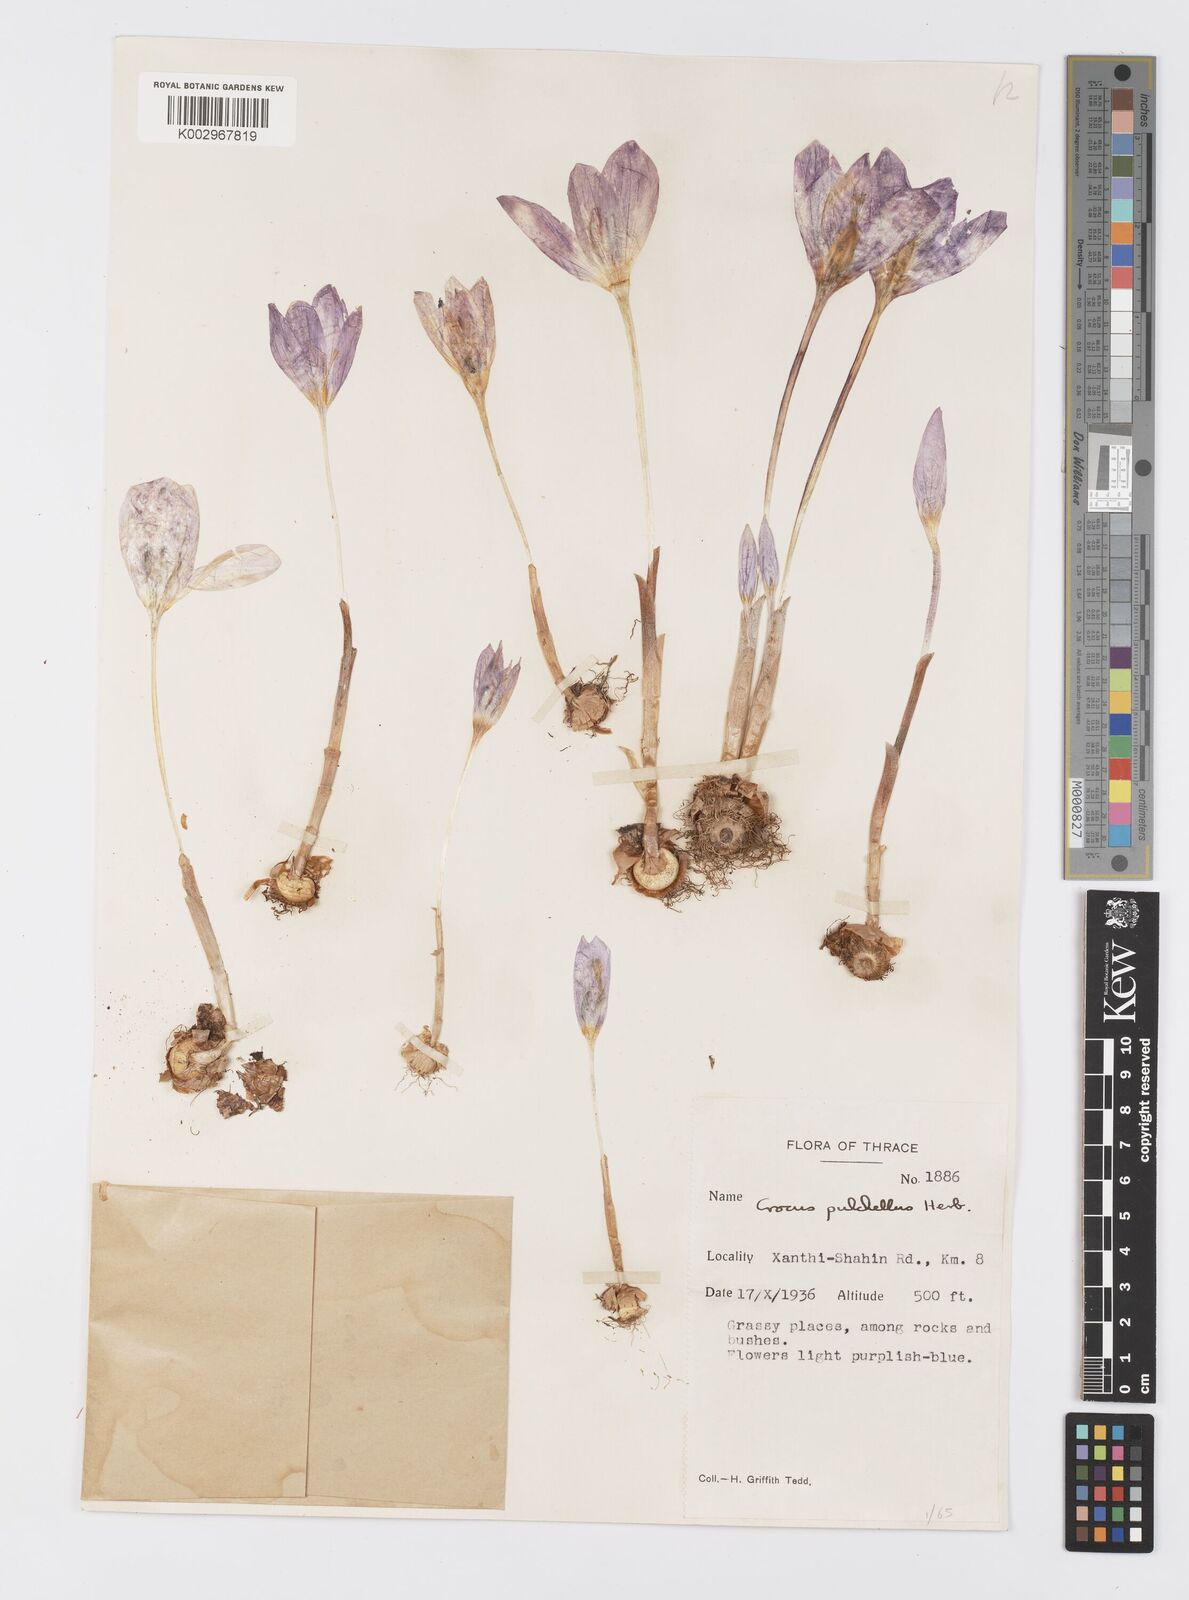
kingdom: Plantae
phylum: Tracheophyta
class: Liliopsida
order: Asparagales
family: Iridaceae
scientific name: Iridaceae
